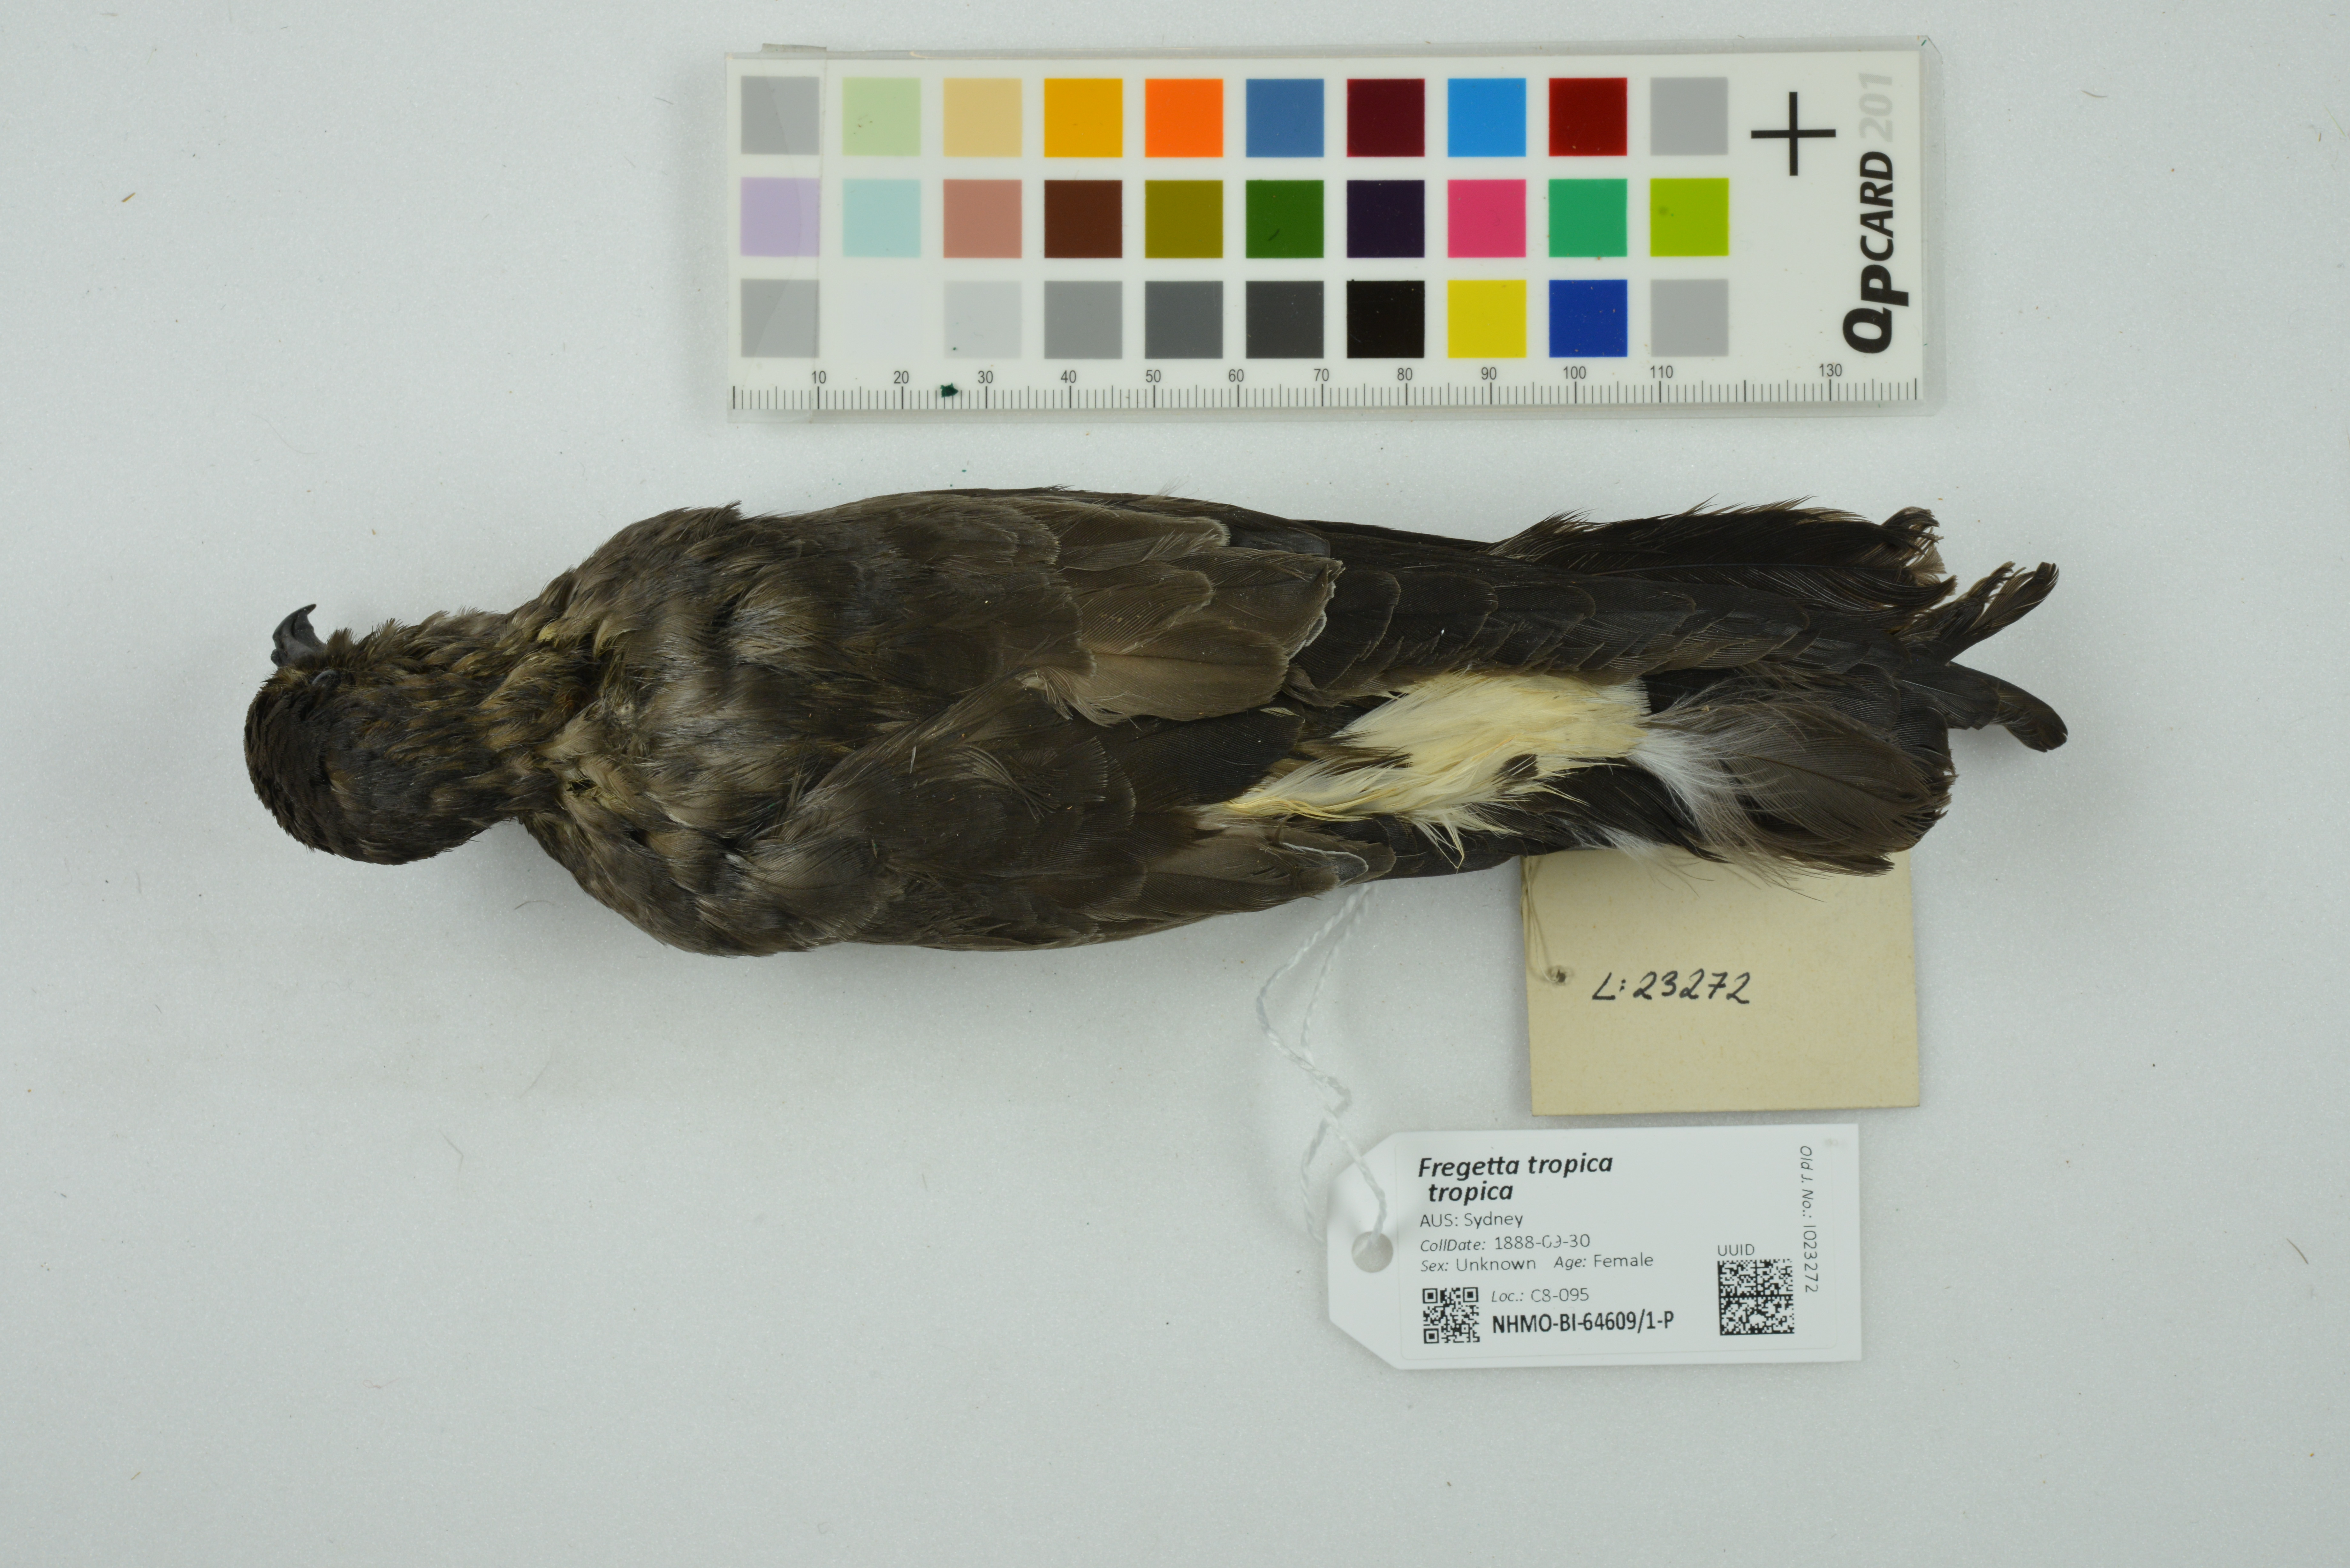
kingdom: Animalia
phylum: Chordata
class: Aves
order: Procellariiformes
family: Hydrobatidae
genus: Fregetta
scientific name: Fregetta tropica
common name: Black-bellied storm-petrel
